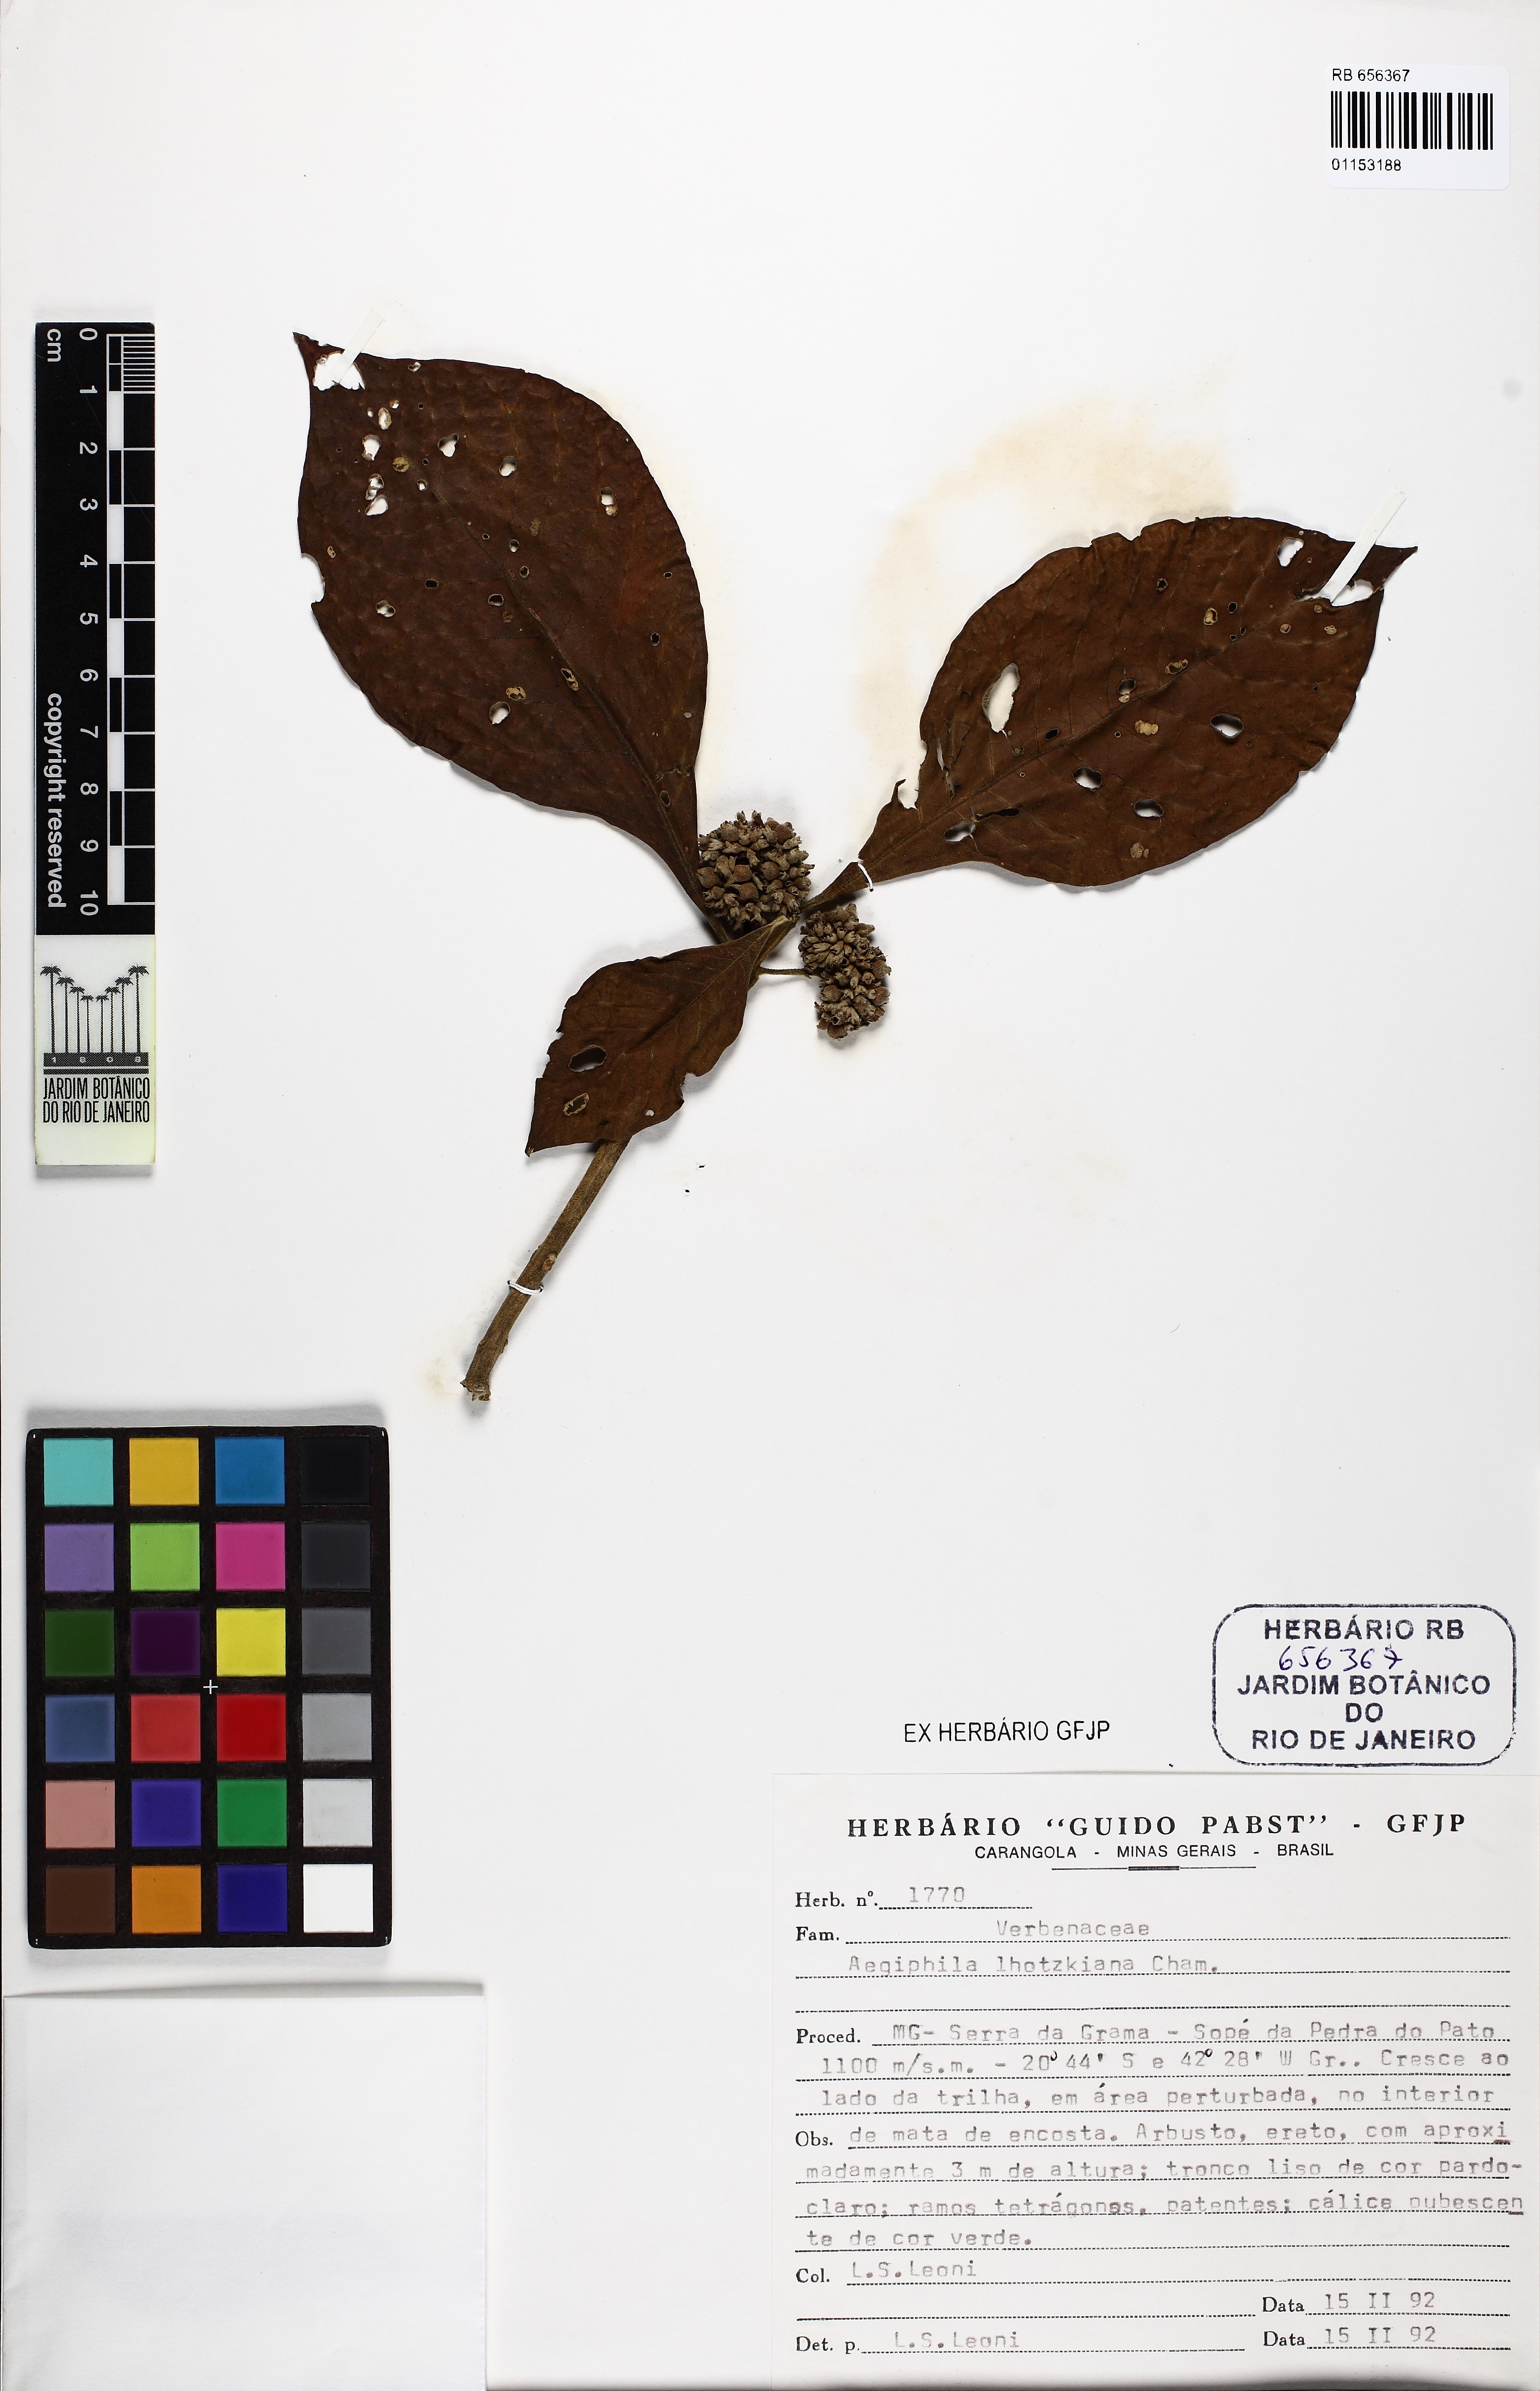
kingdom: Plantae
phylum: Tracheophyta
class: Magnoliopsida
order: Lamiales
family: Lamiaceae
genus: Aegiphila
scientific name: Aegiphila lhotskiana
